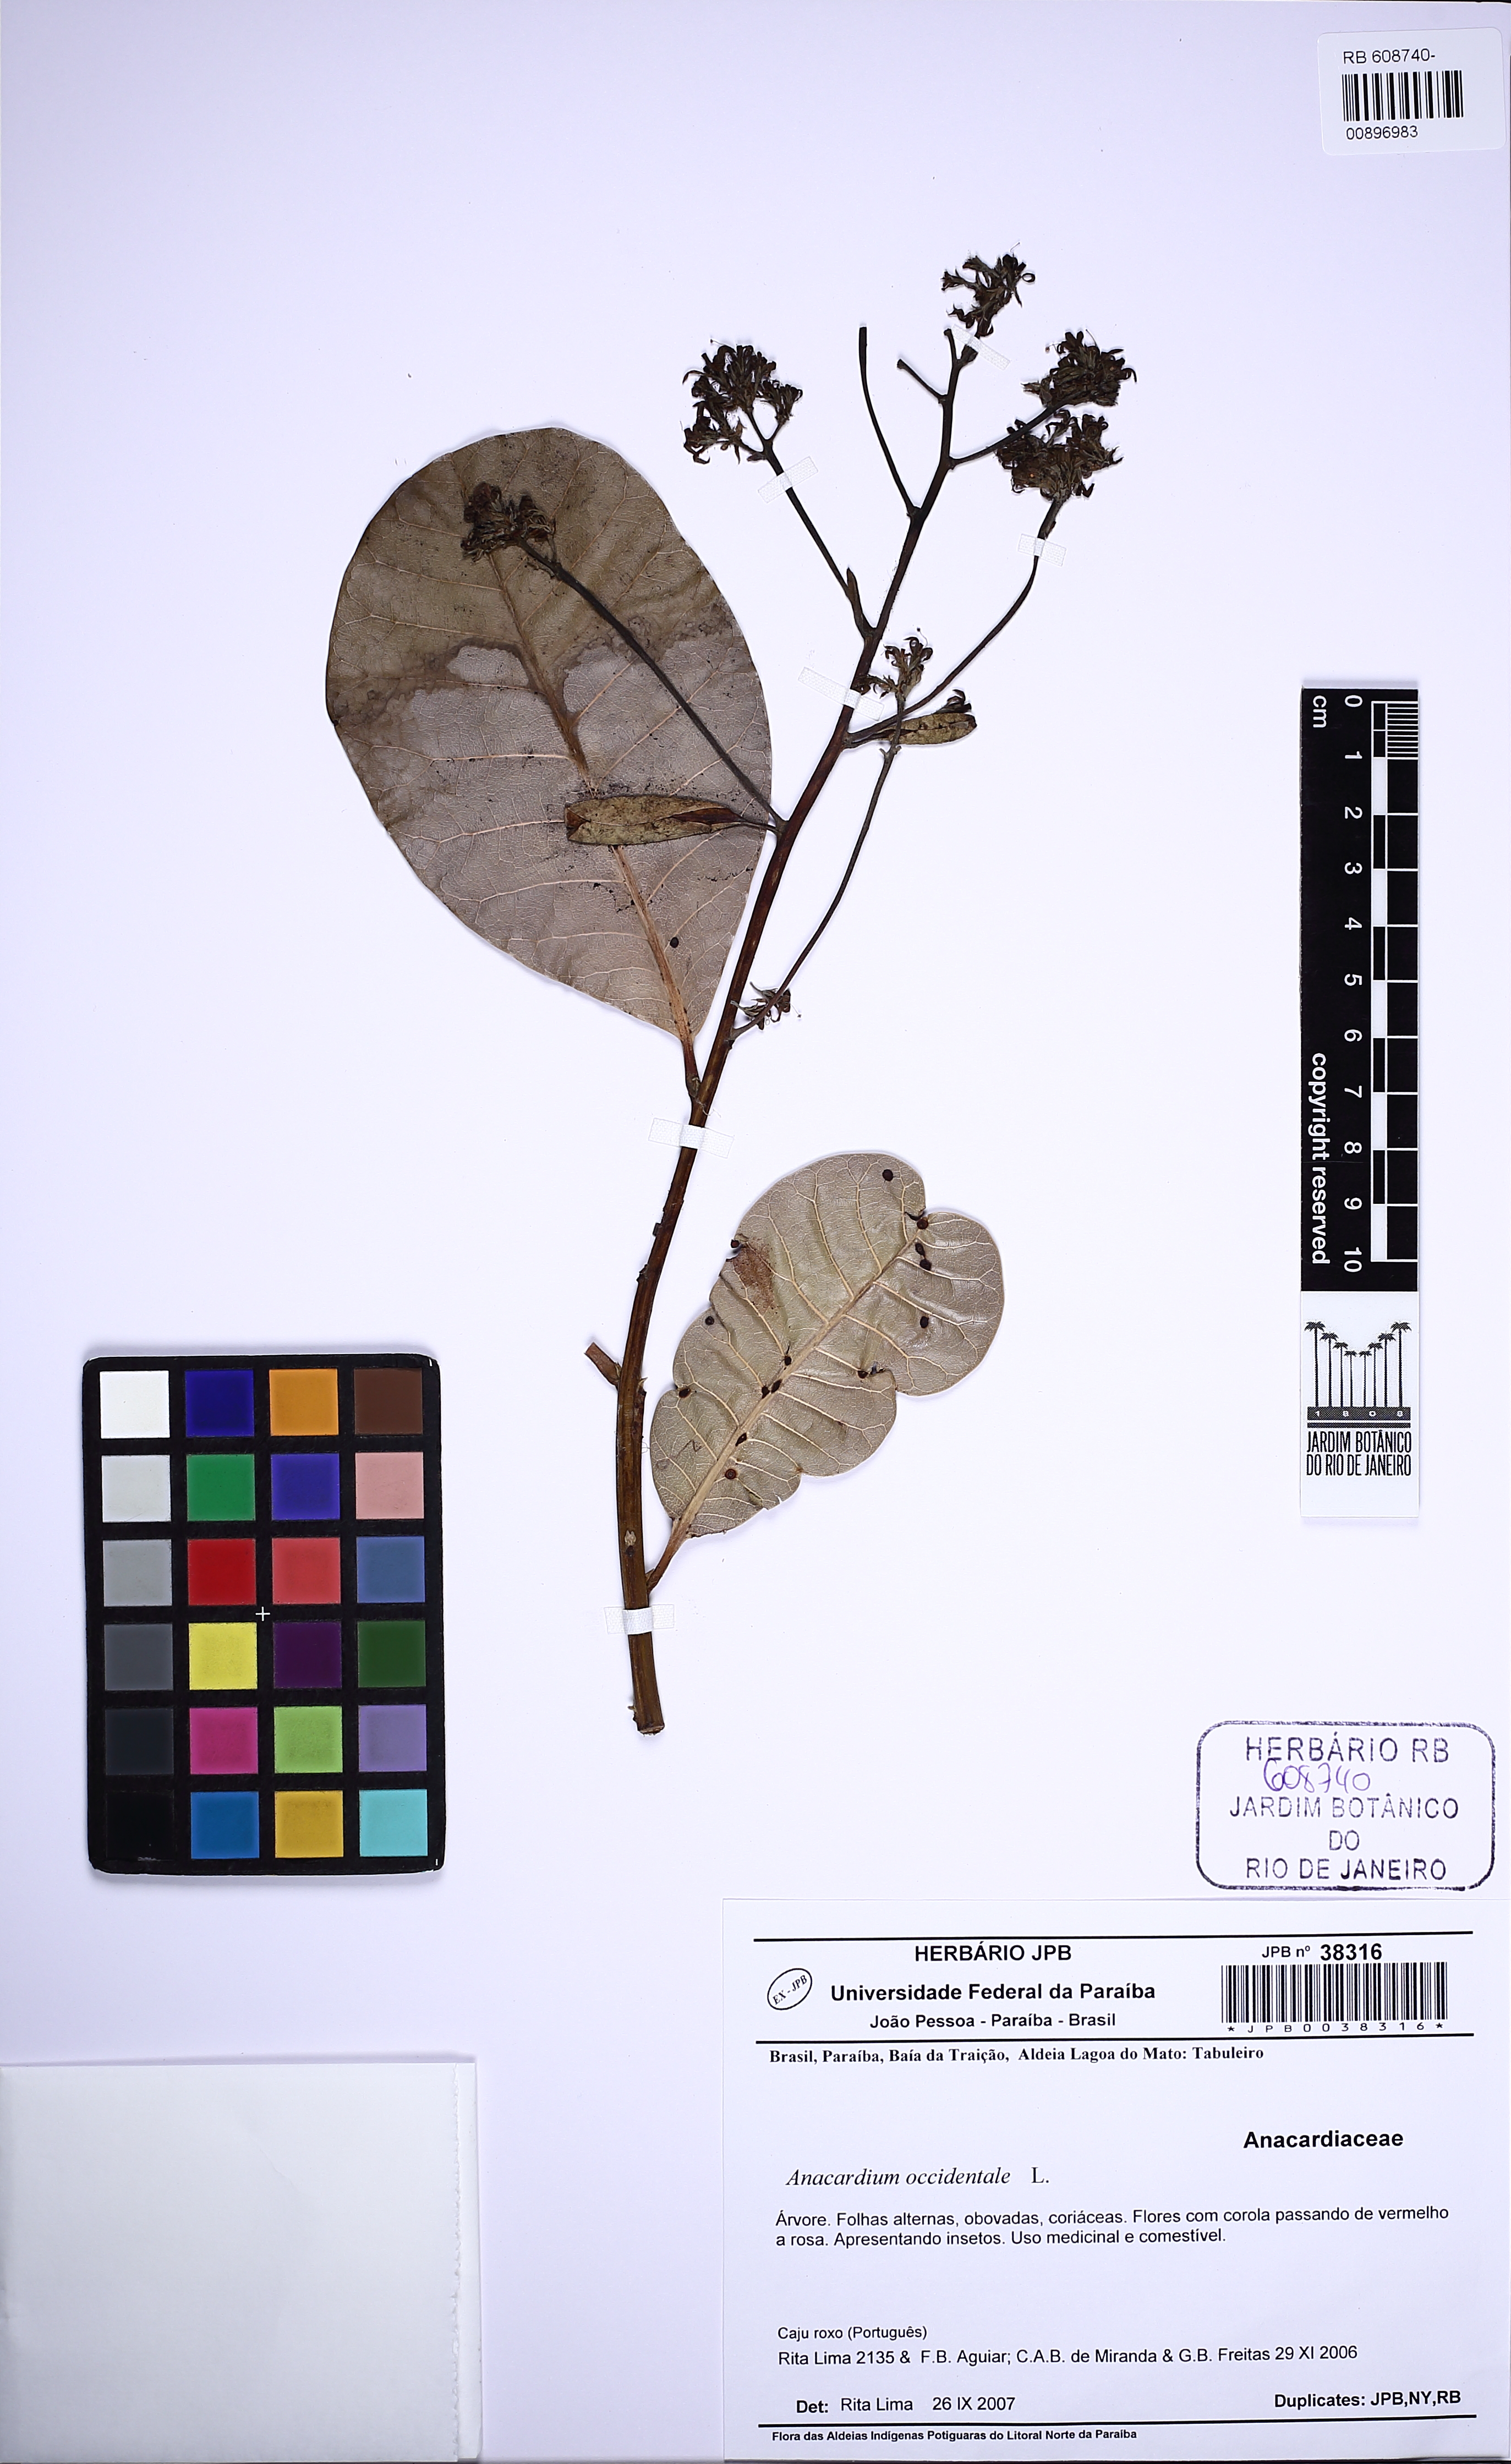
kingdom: Plantae
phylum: Tracheophyta
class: Magnoliopsida
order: Sapindales
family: Anacardiaceae
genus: Anacardium
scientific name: Anacardium occidentale
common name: Cashew
